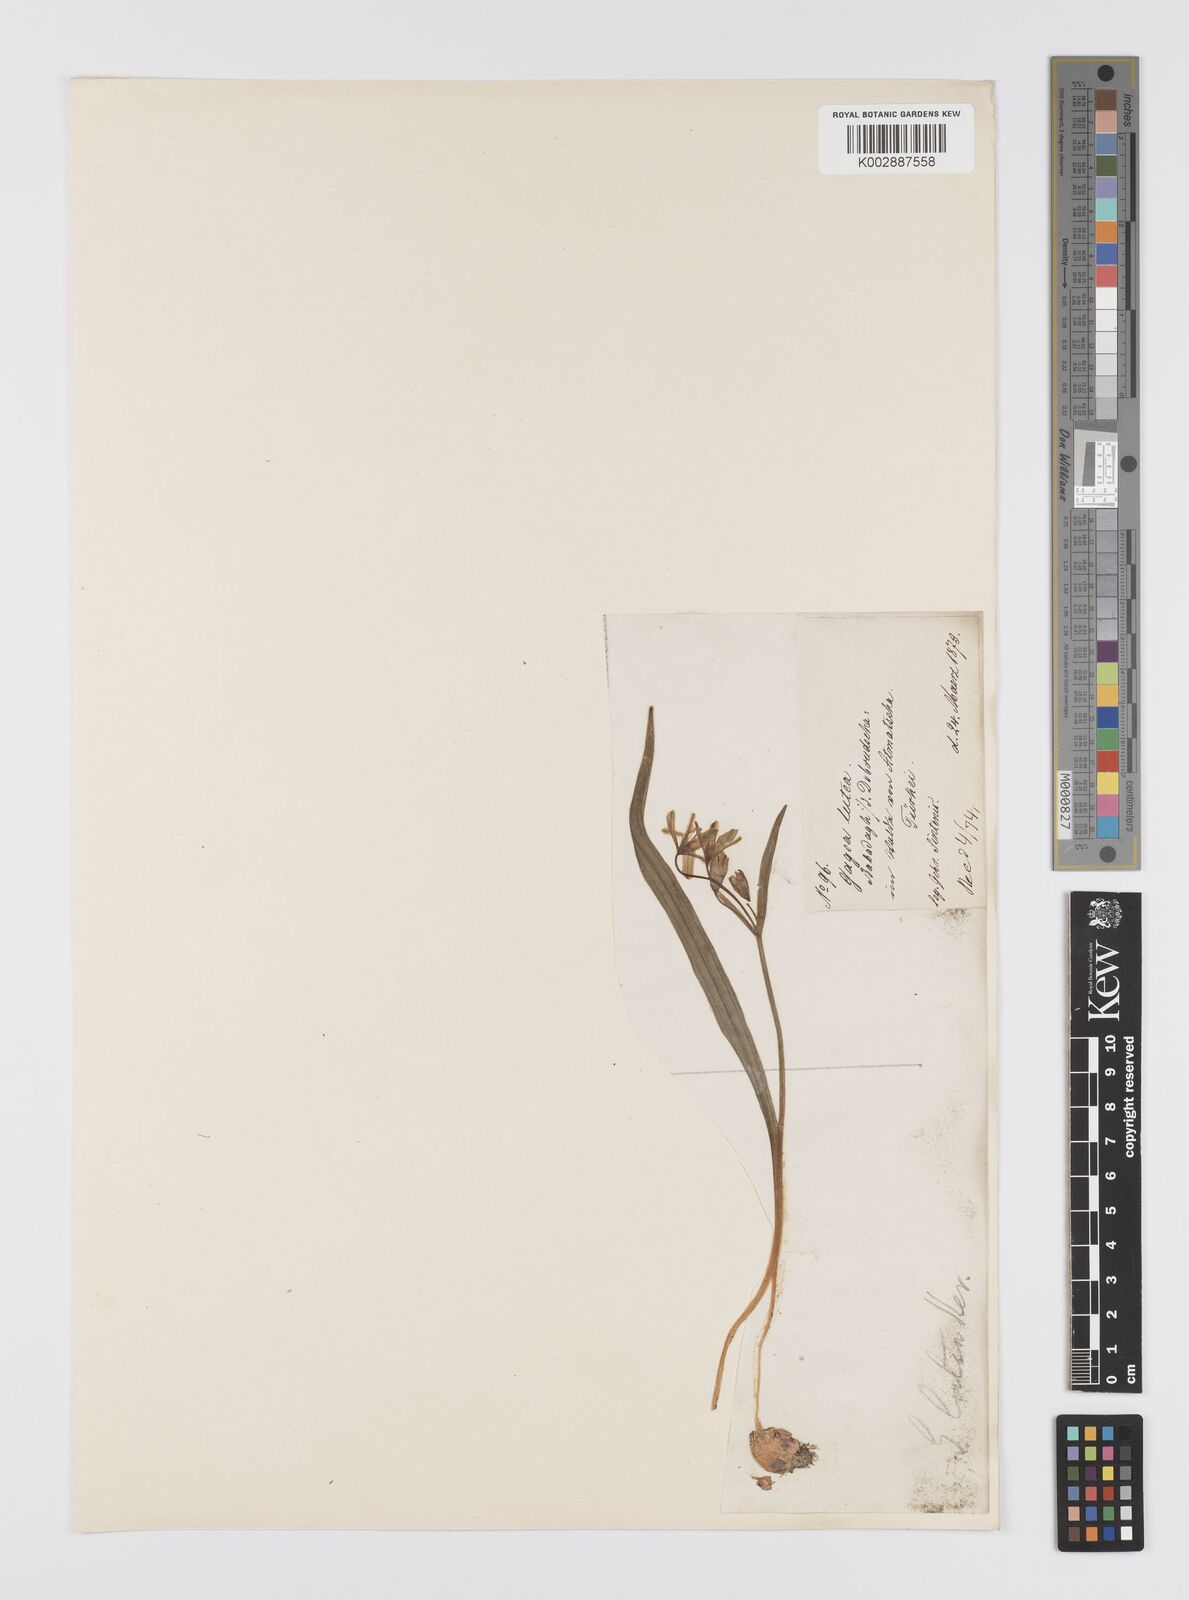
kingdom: Plantae
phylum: Tracheophyta
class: Liliopsida
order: Liliales
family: Liliaceae
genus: Gagea
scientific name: Gagea lutea
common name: Yellow star-of-bethlehem
